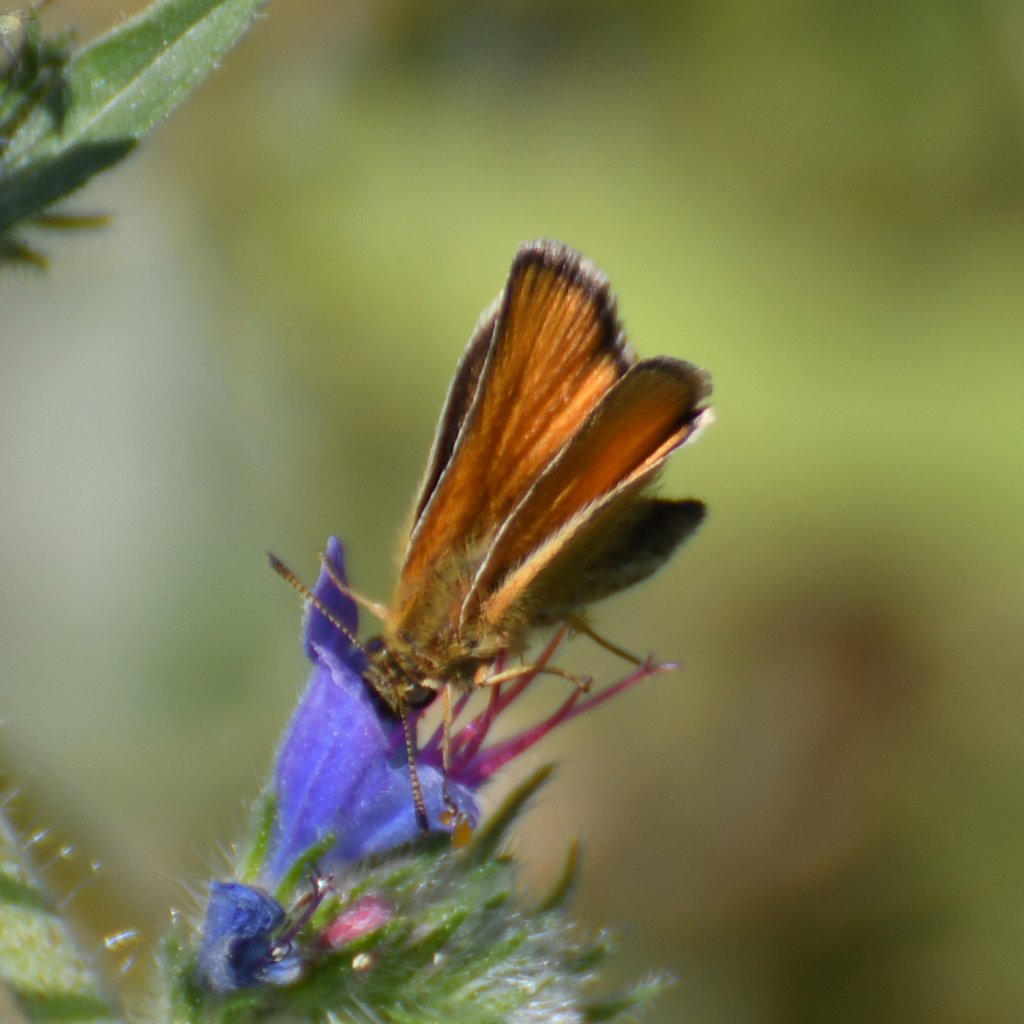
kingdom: Animalia
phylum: Arthropoda
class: Insecta
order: Lepidoptera
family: Hesperiidae
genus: Thymelicus
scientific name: Thymelicus lineola
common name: European Skipper
